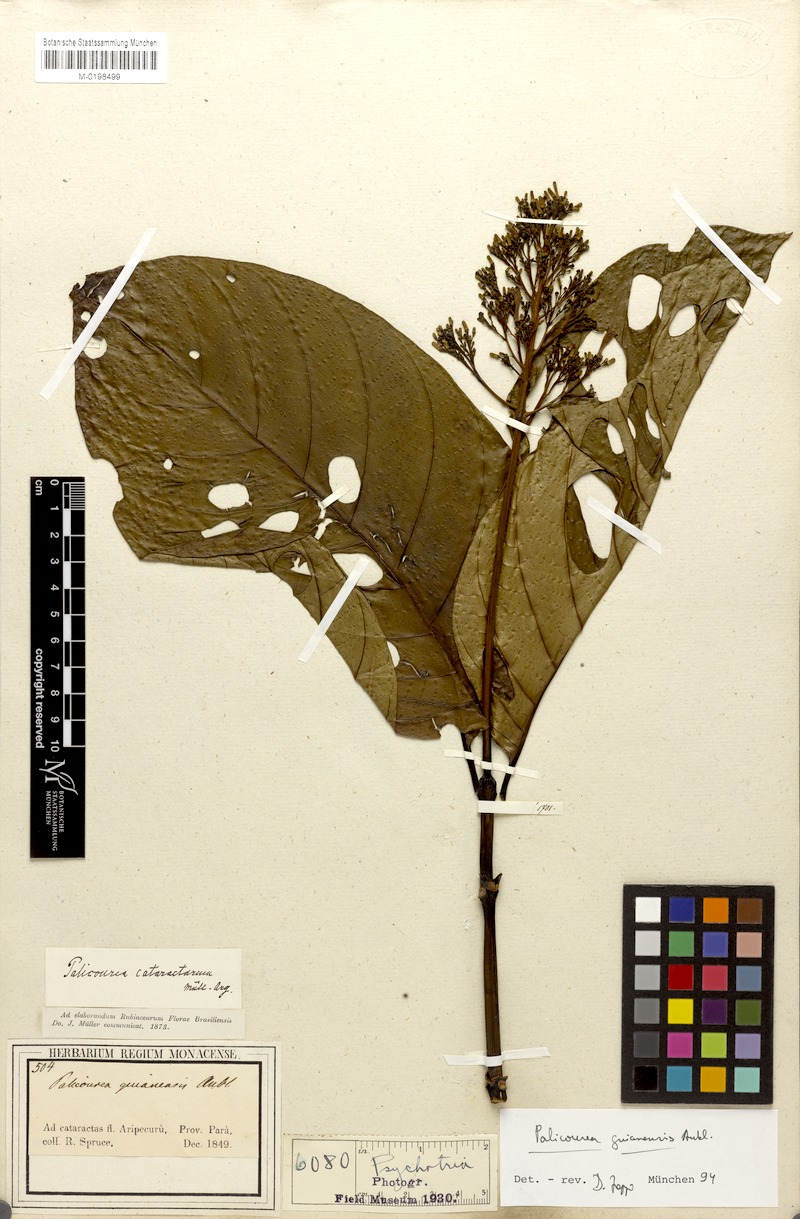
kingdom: Plantae
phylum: Tracheophyta
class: Magnoliopsida
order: Gentianales
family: Rubiaceae
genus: Palicourea
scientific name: Palicourea guianensis
